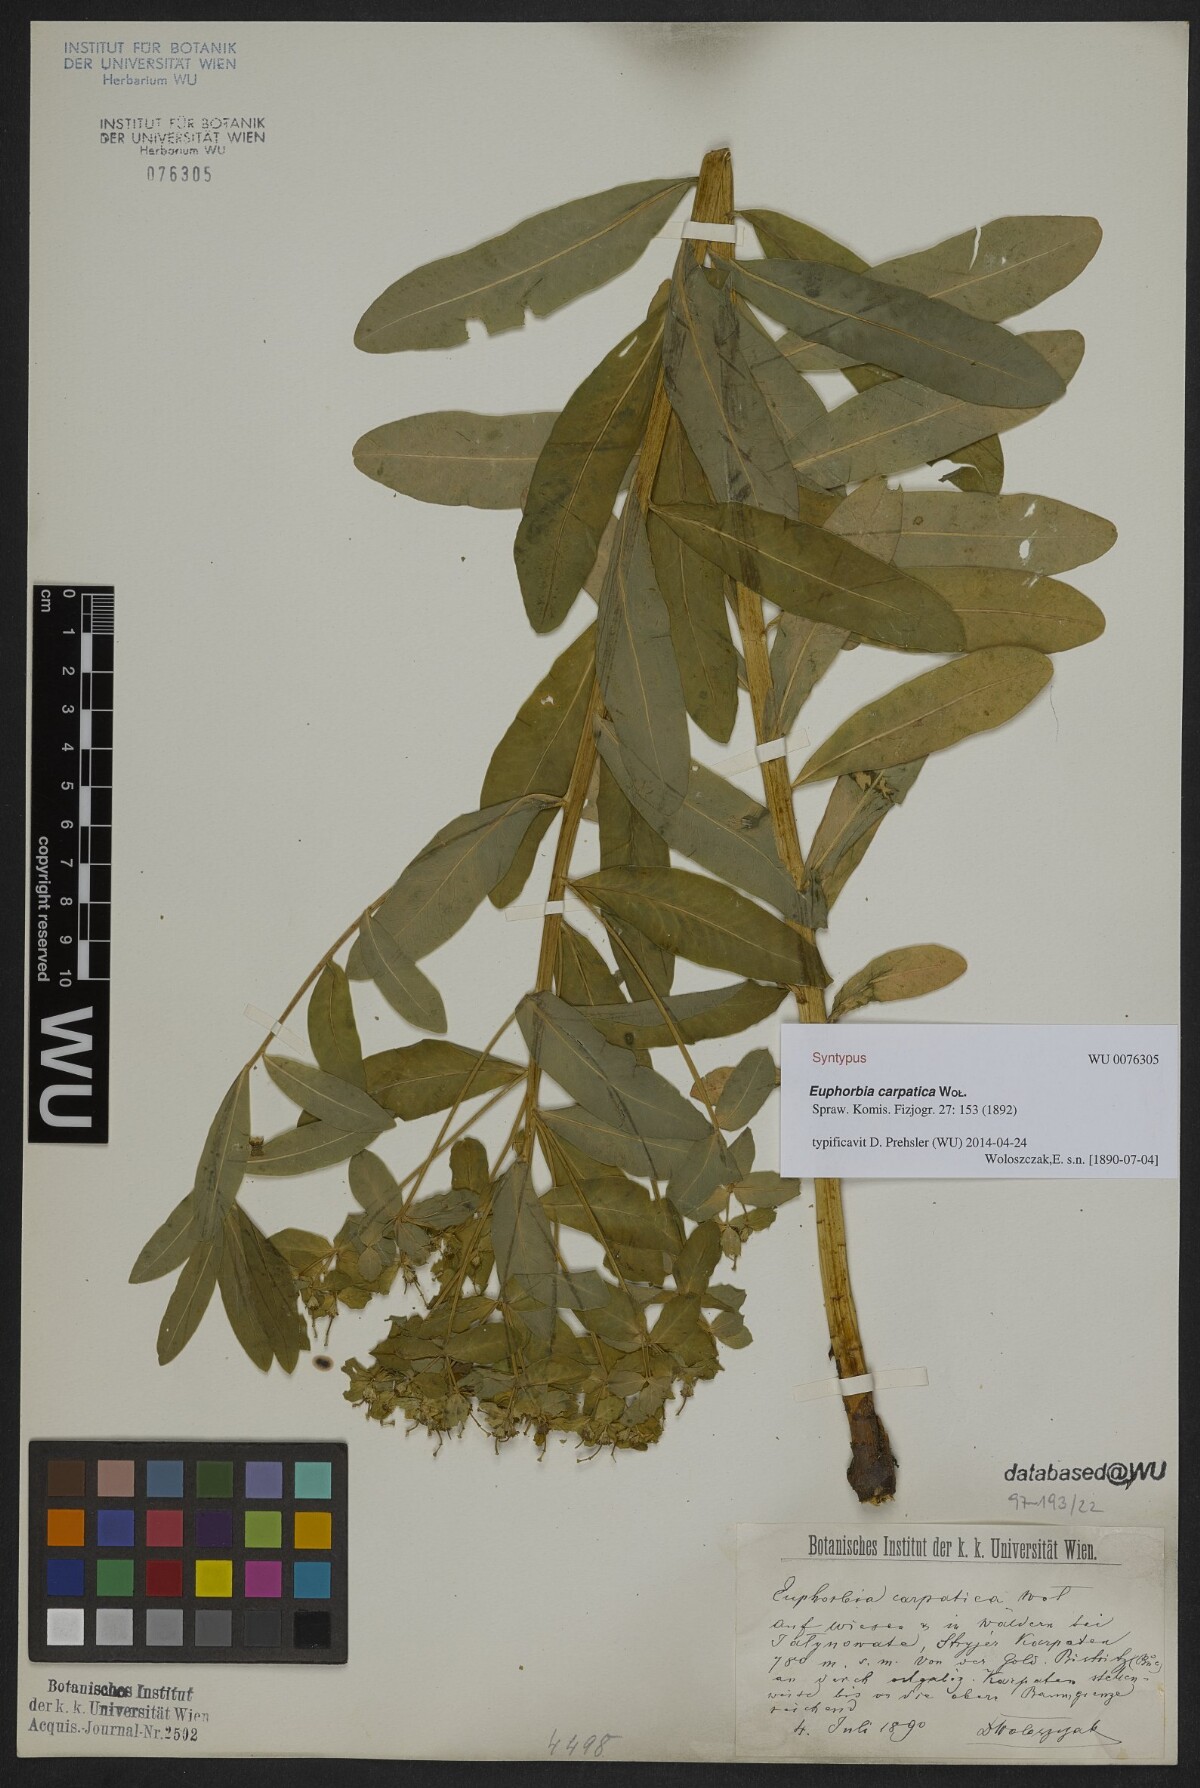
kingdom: Plantae
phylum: Tracheophyta
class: Magnoliopsida
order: Malpighiales
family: Euphorbiaceae
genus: Euphorbia
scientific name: Euphorbia carpatica
